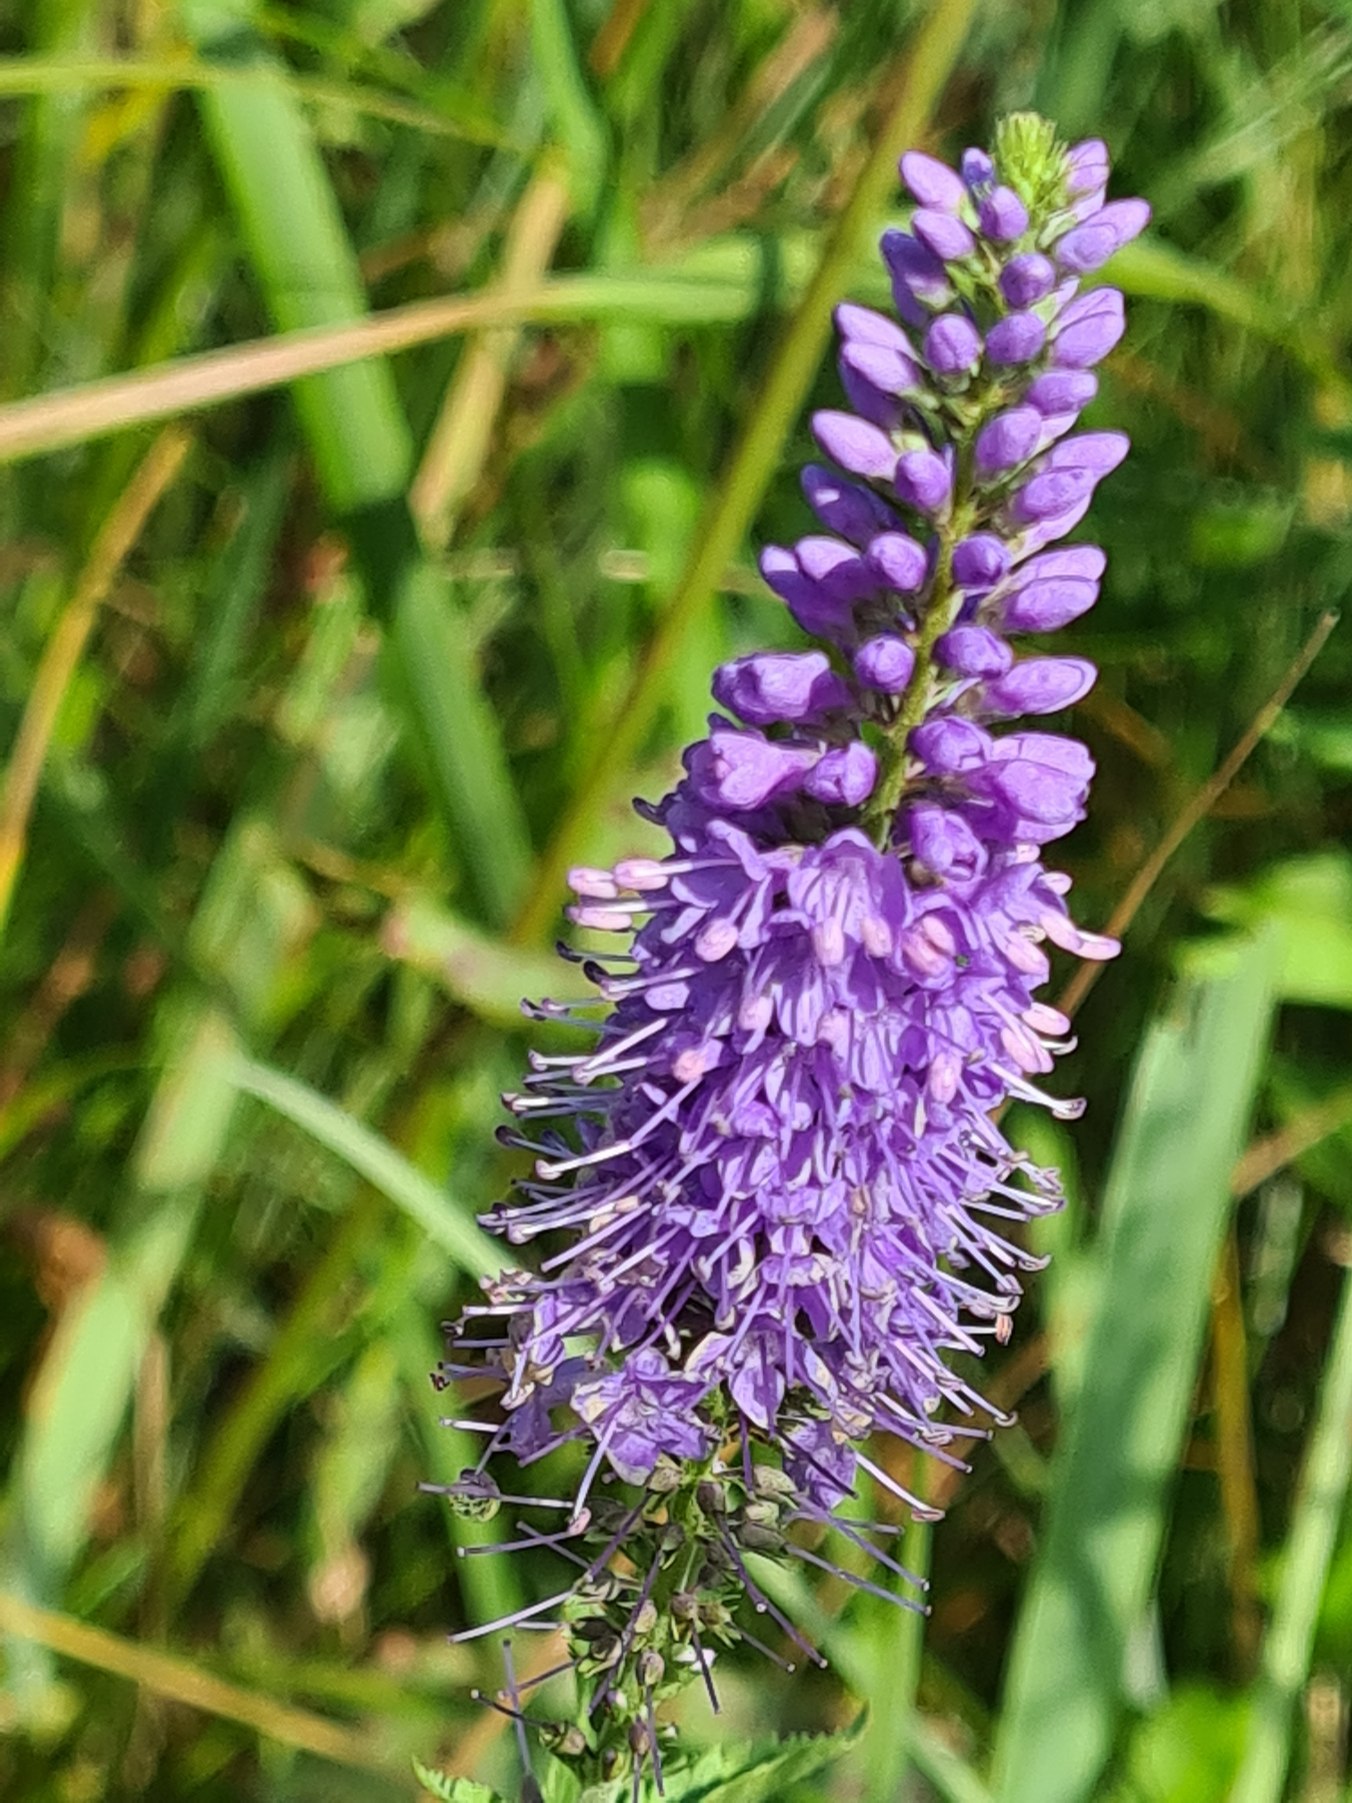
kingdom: Plantae
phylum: Tracheophyta
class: Magnoliopsida
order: Lamiales
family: Plantaginaceae
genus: Veronica
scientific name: Veronica longifolia
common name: Langbladet ærenpris
